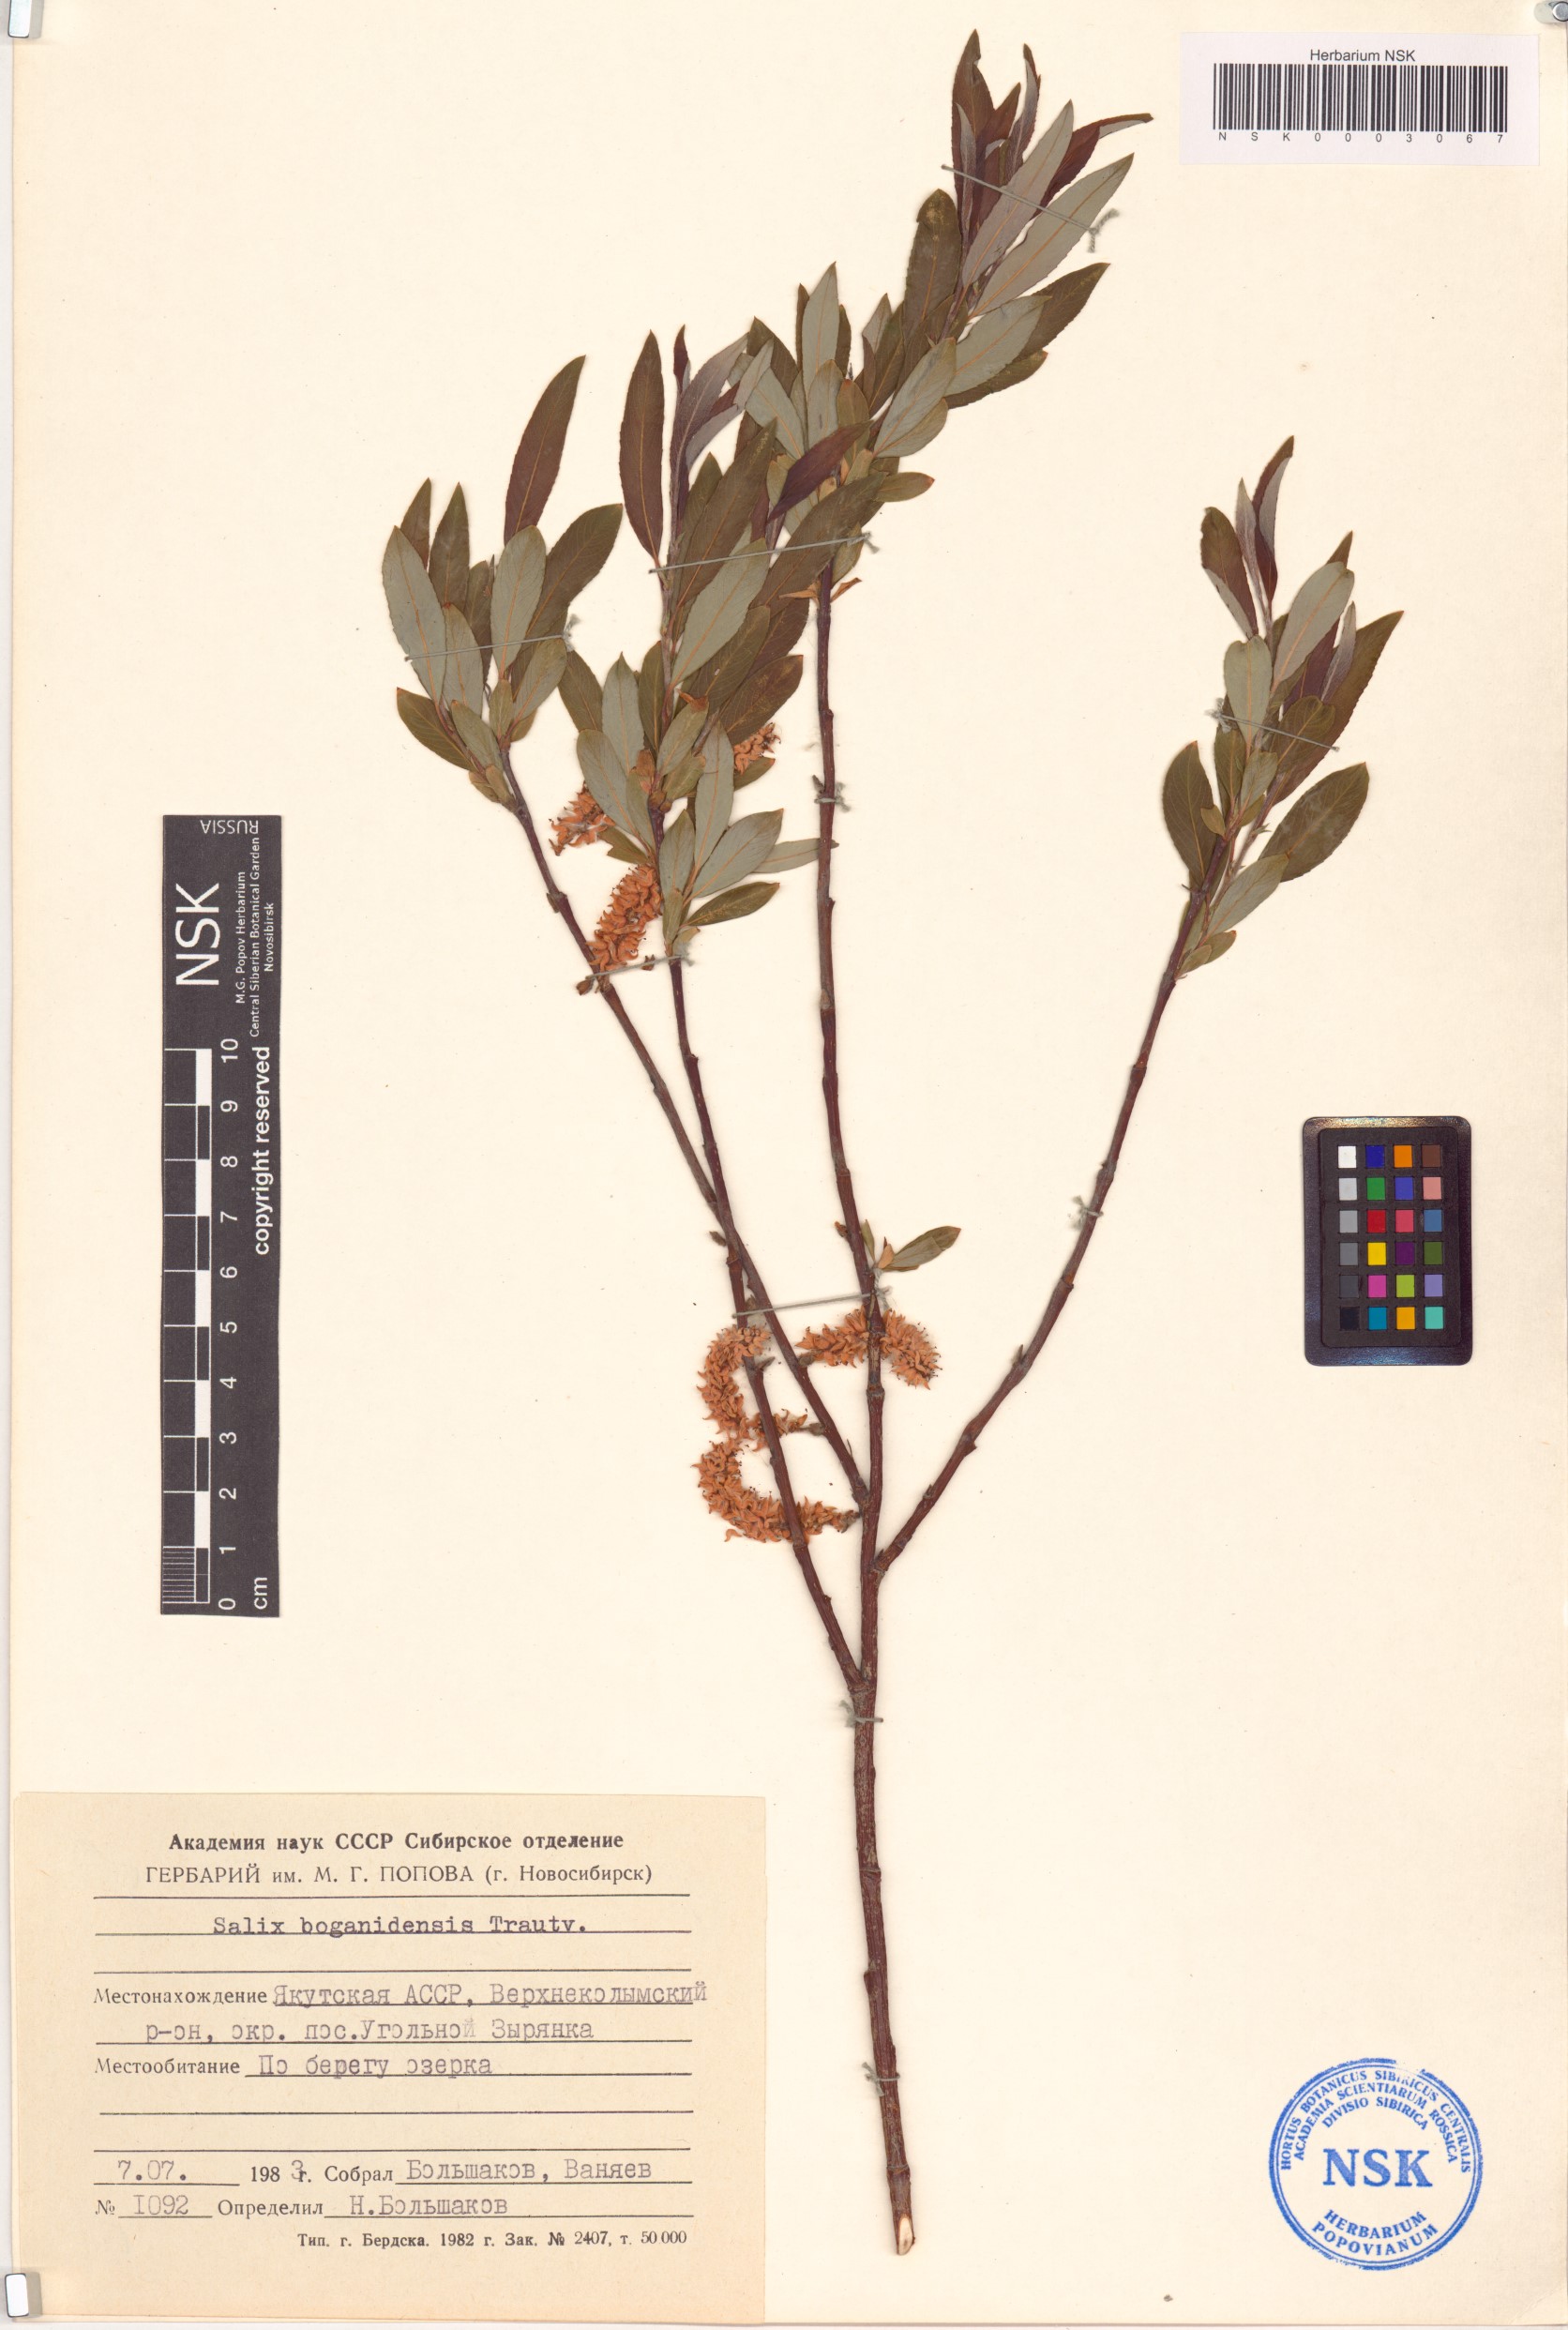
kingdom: Plantae
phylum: Tracheophyta
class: Magnoliopsida
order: Malpighiales
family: Salicaceae
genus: Salix
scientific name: Salix boganidensis
